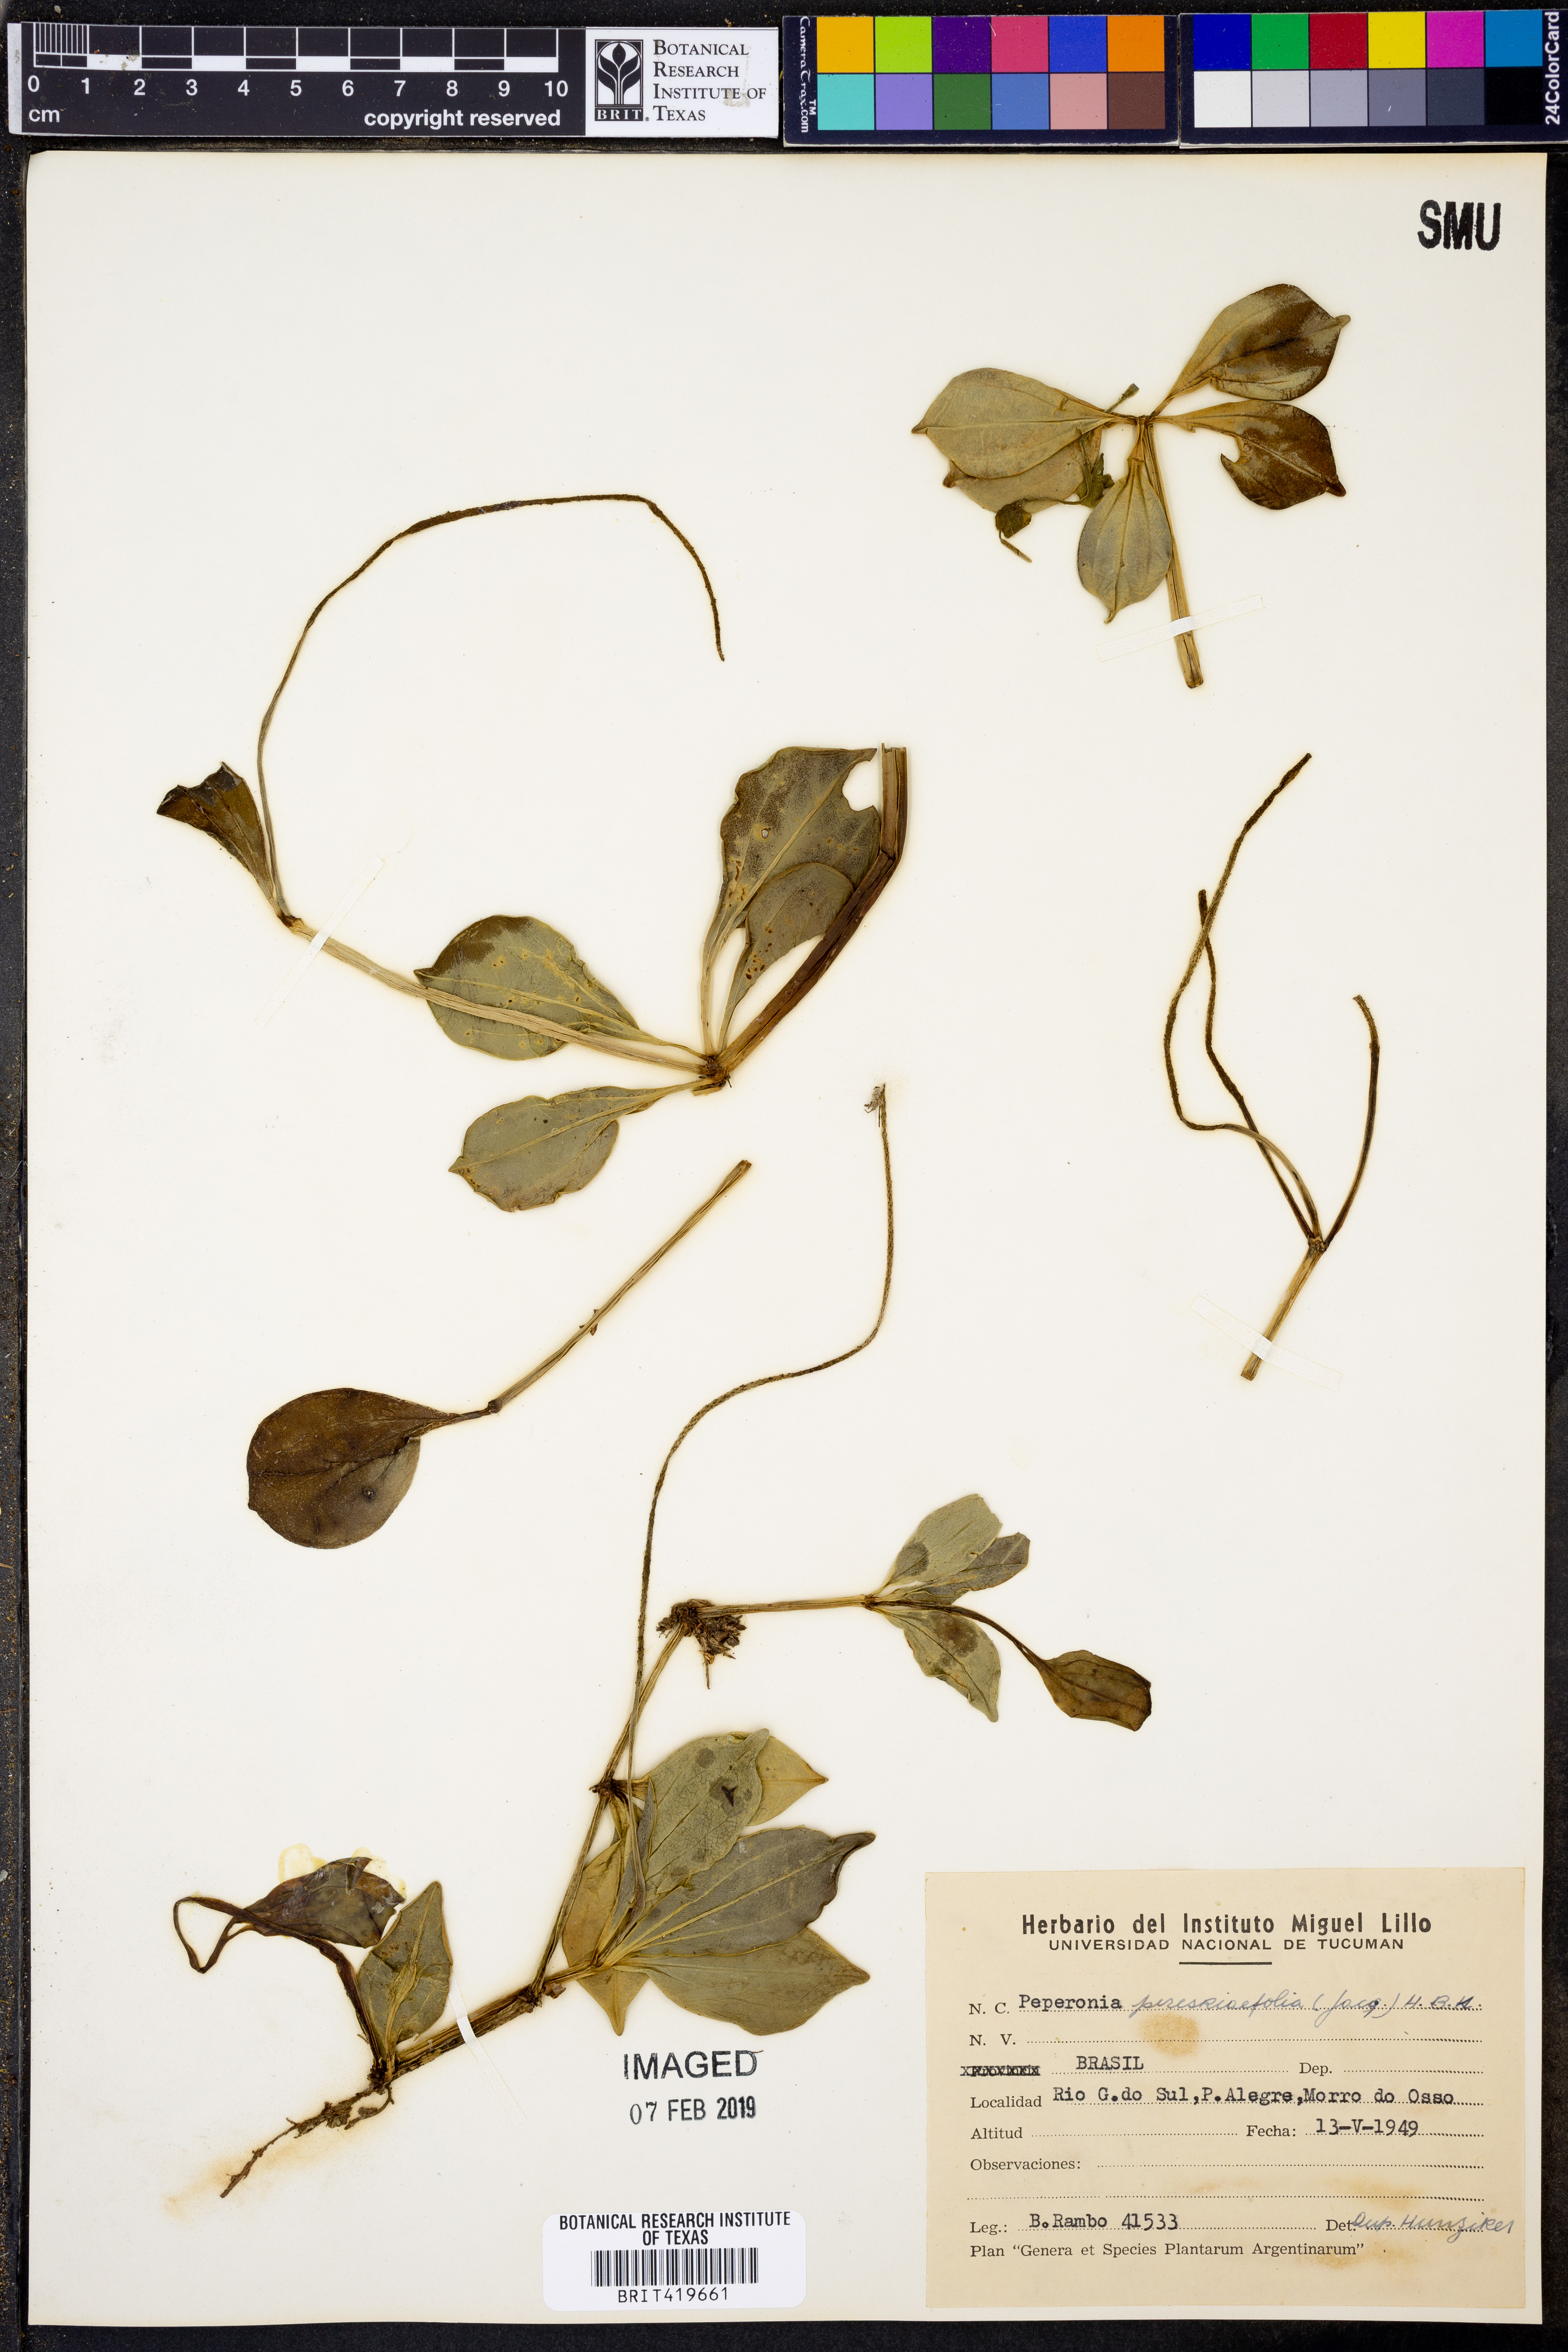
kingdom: Plantae
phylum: Tracheophyta
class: Magnoliopsida
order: Piperales
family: Piperaceae
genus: Peperomia
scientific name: Peperomia pereskiifolia
